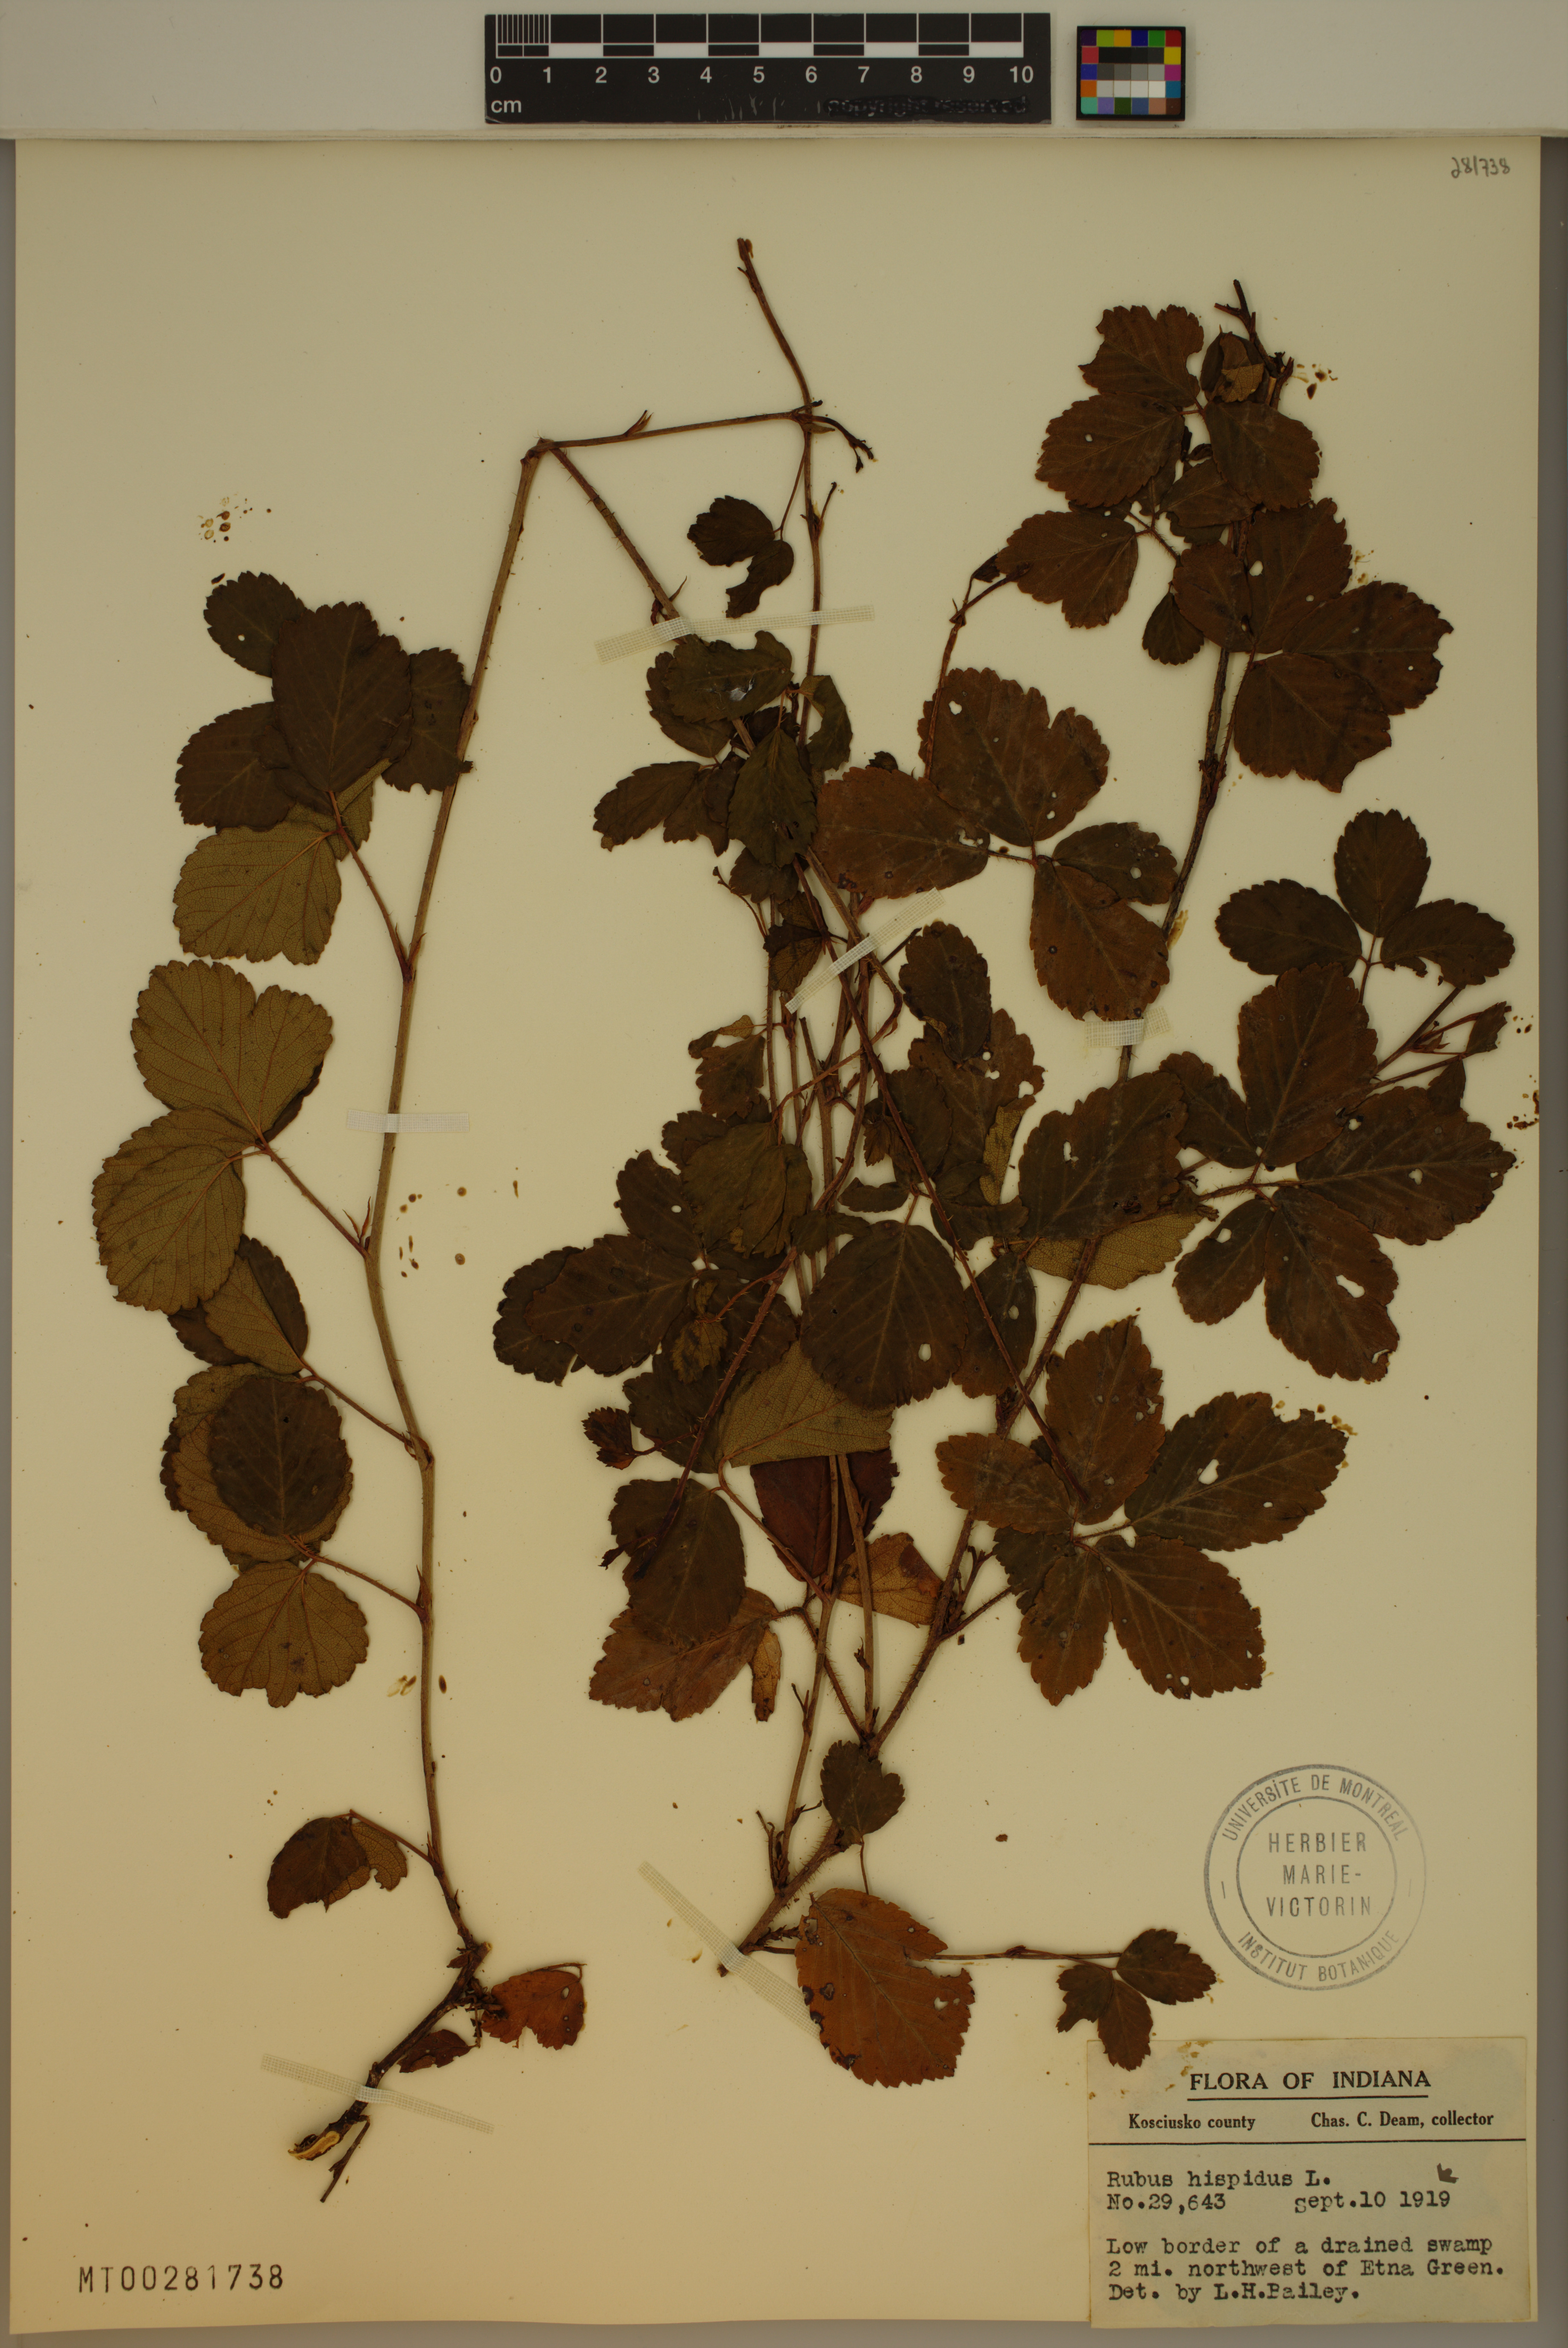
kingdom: Plantae
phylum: Tracheophyta
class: Magnoliopsida
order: Rosales
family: Rosaceae
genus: Rubus
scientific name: Rubus hispidus
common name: Running blackberry
